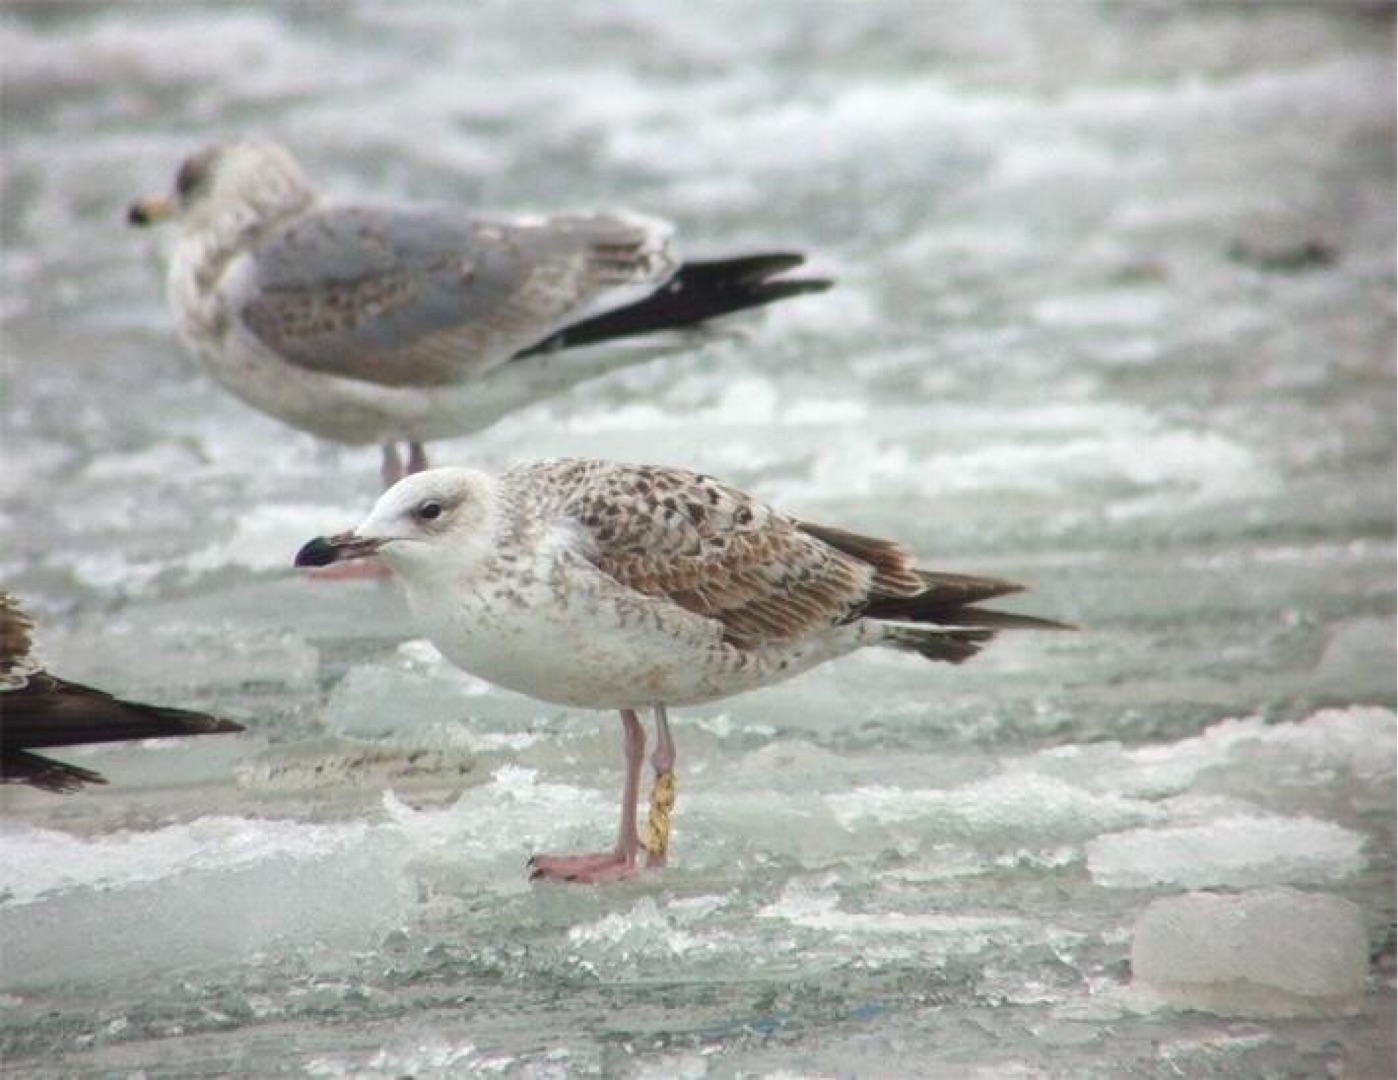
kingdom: Animalia
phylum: Chordata
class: Aves
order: Charadriiformes
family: Laridae
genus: Larus
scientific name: Larus cachinnans
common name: Kaspisk måge
